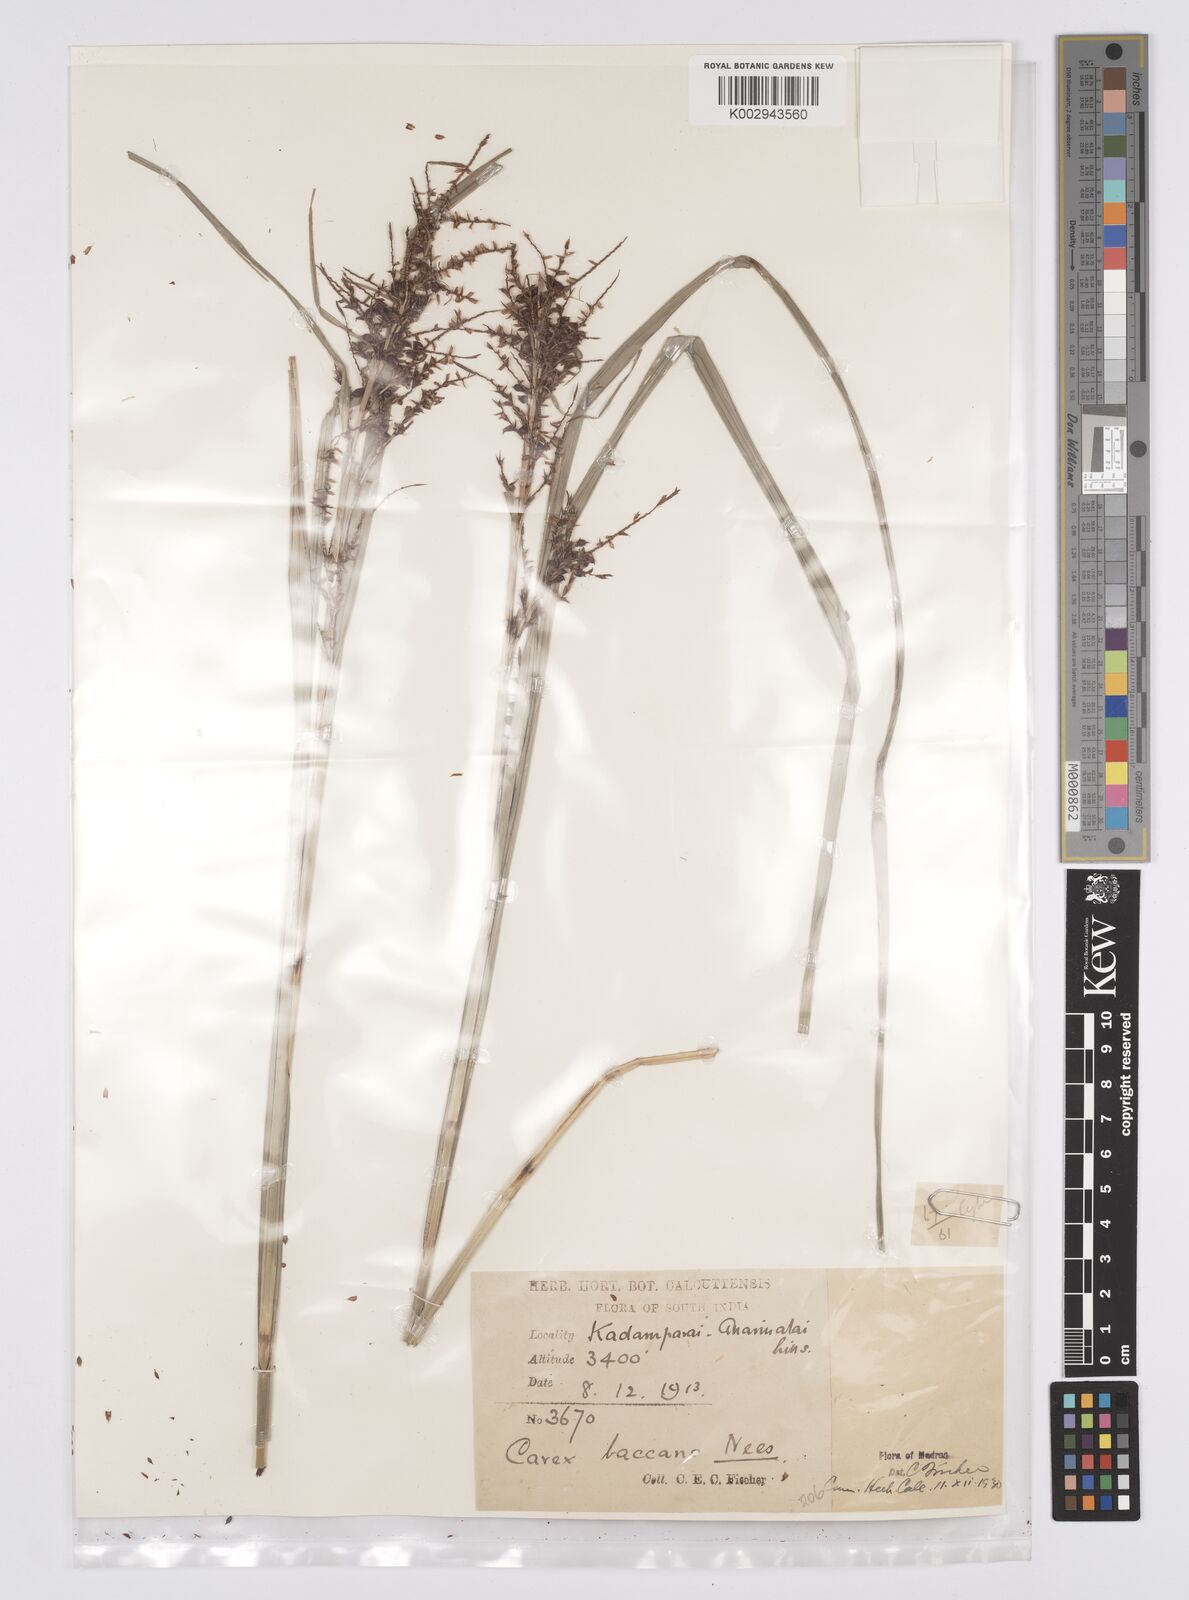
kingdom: Plantae
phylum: Tracheophyta
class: Liliopsida
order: Poales
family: Cyperaceae
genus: Carex
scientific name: Carex baccans
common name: Crimson seeded sedge
